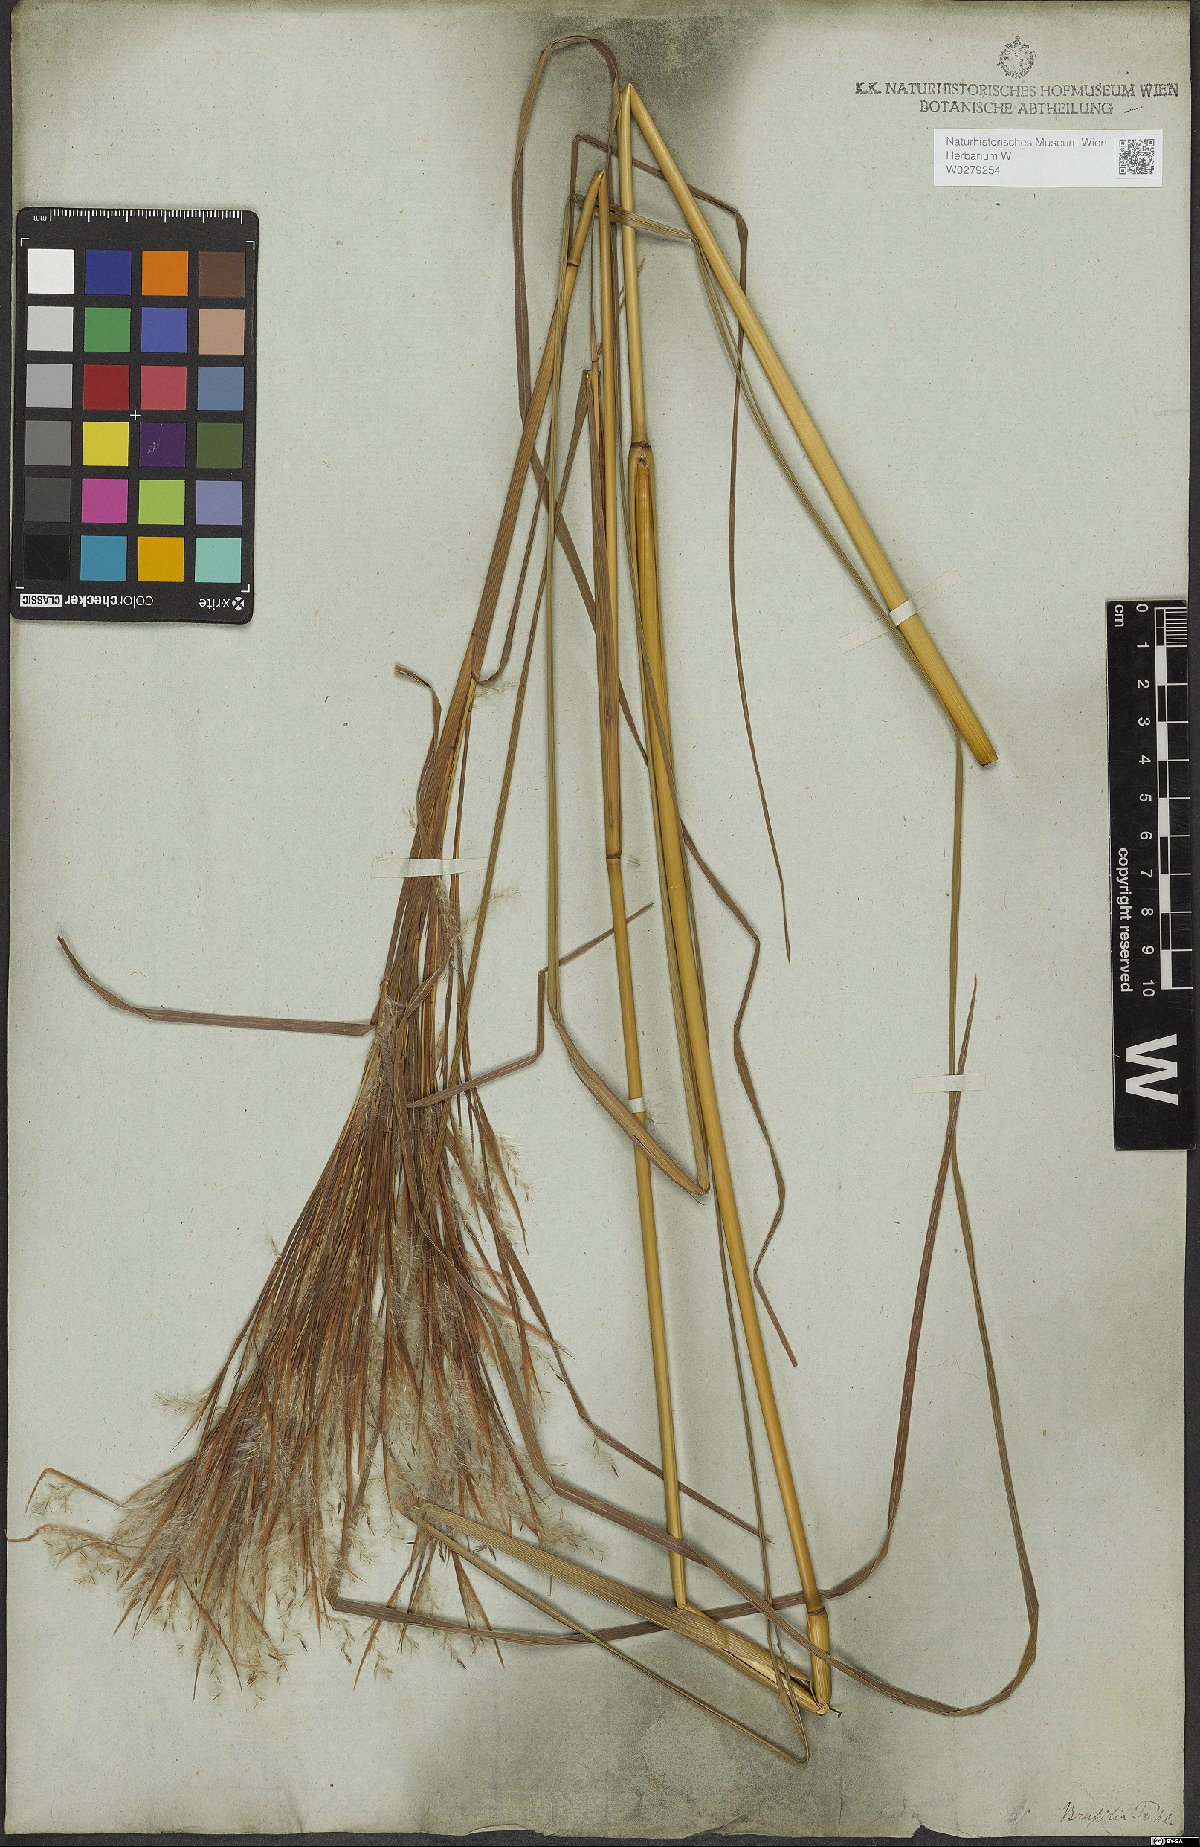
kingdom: Plantae
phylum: Tracheophyta
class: Liliopsida
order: Poales
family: Poaceae
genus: Andropogon
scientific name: Andropogon bicornis
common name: West indian foxtail grass
